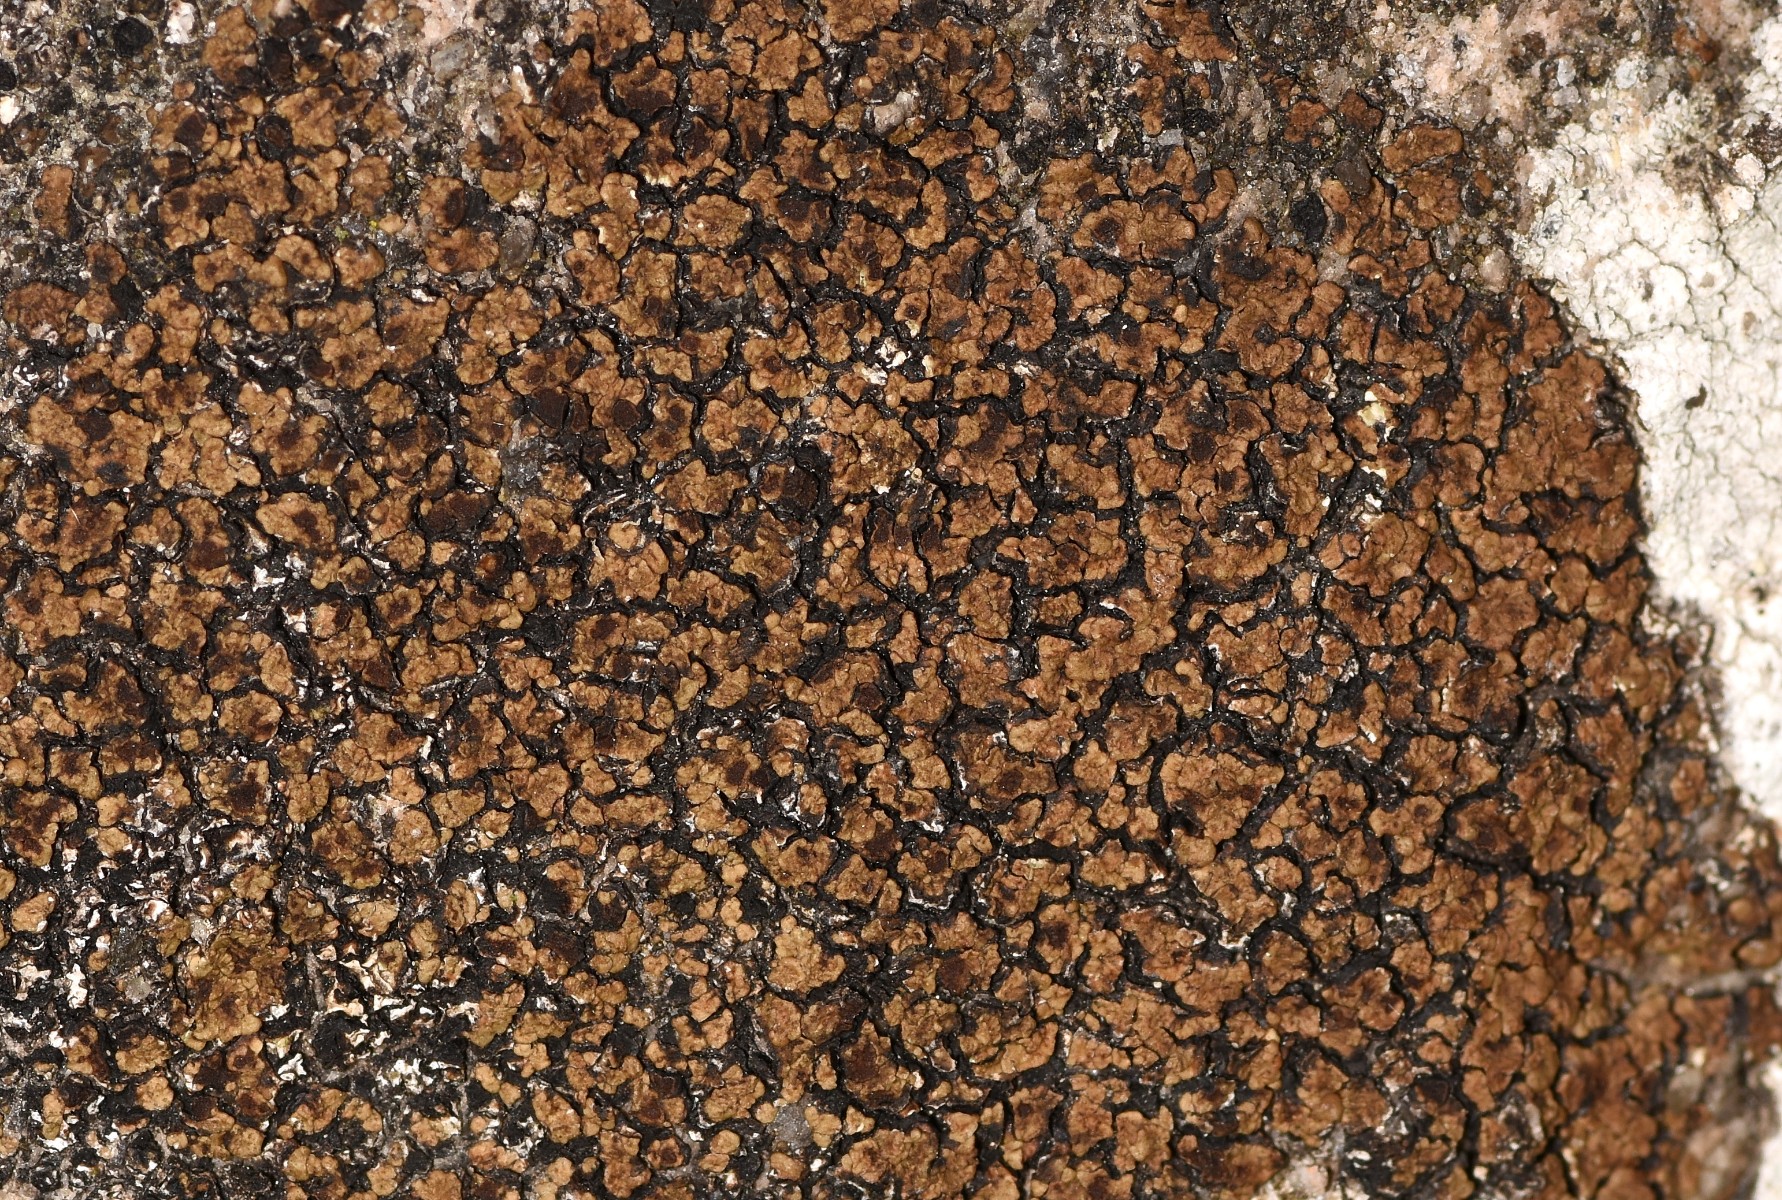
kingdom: Fungi
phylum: Ascomycota
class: Lecanoromycetes
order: Acarosporales
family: Acarosporaceae
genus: Acarospora
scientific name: Acarospora fuscata
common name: brun småsporelav
